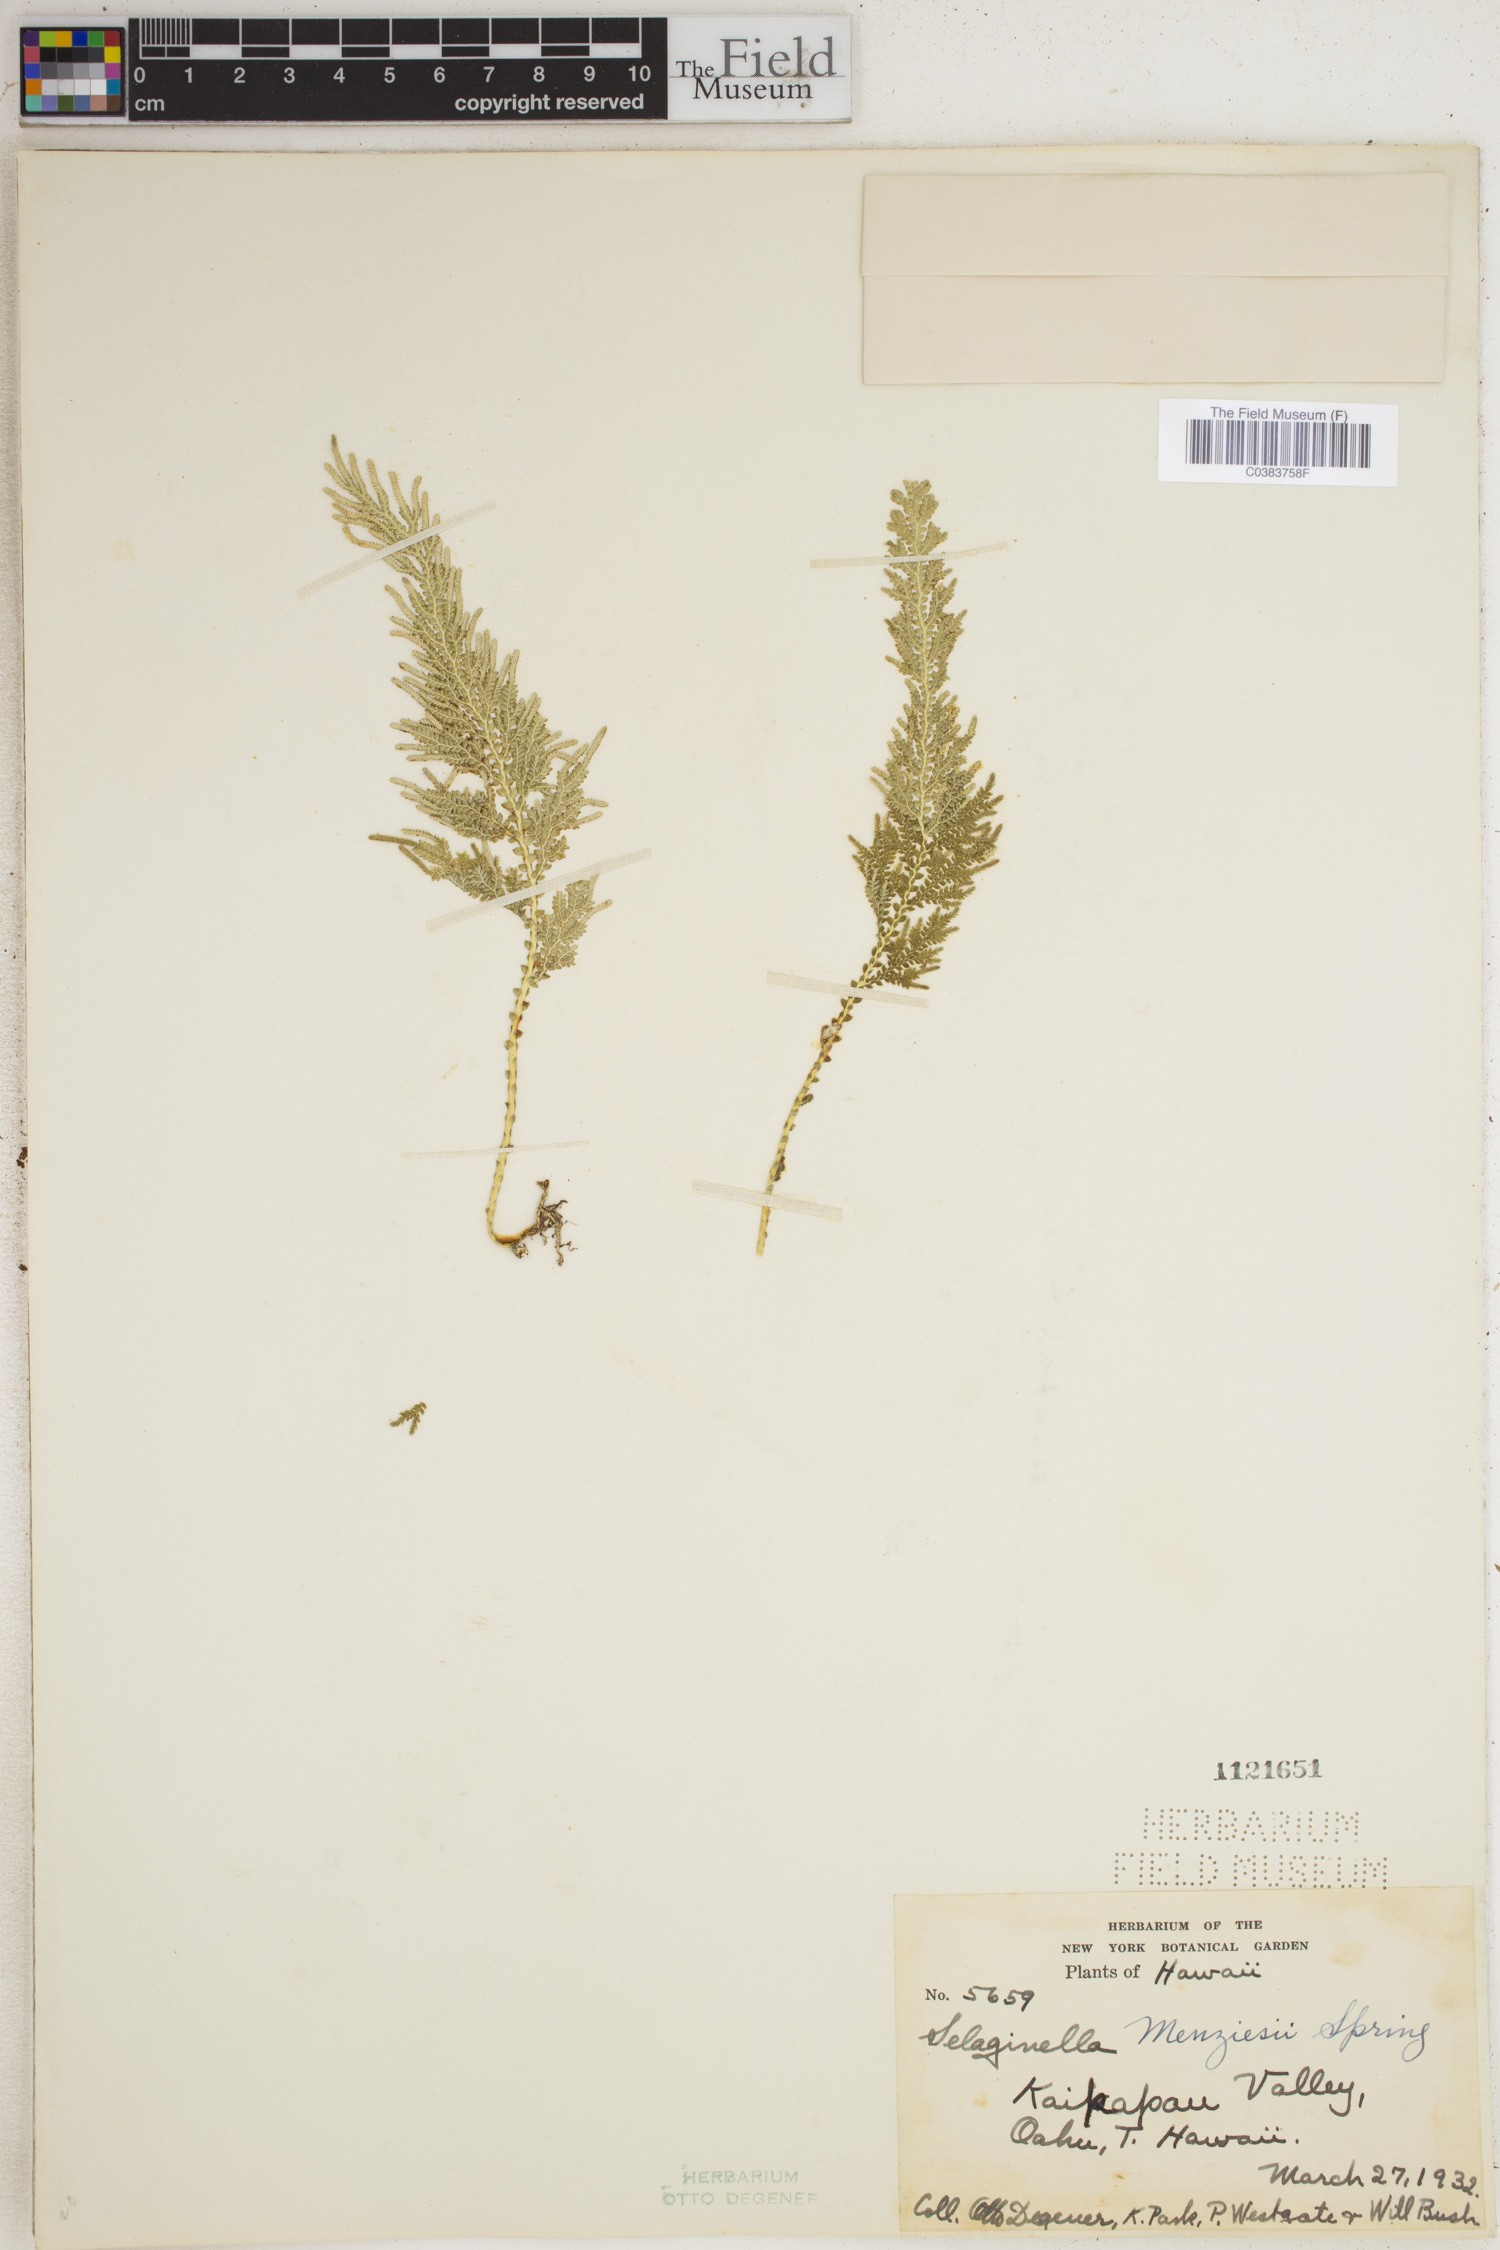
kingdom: Plantae
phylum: Tracheophyta
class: Lycopodiopsida
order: Selaginellales
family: Selaginellaceae
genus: Selaginella
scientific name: Selaginella menziesii
